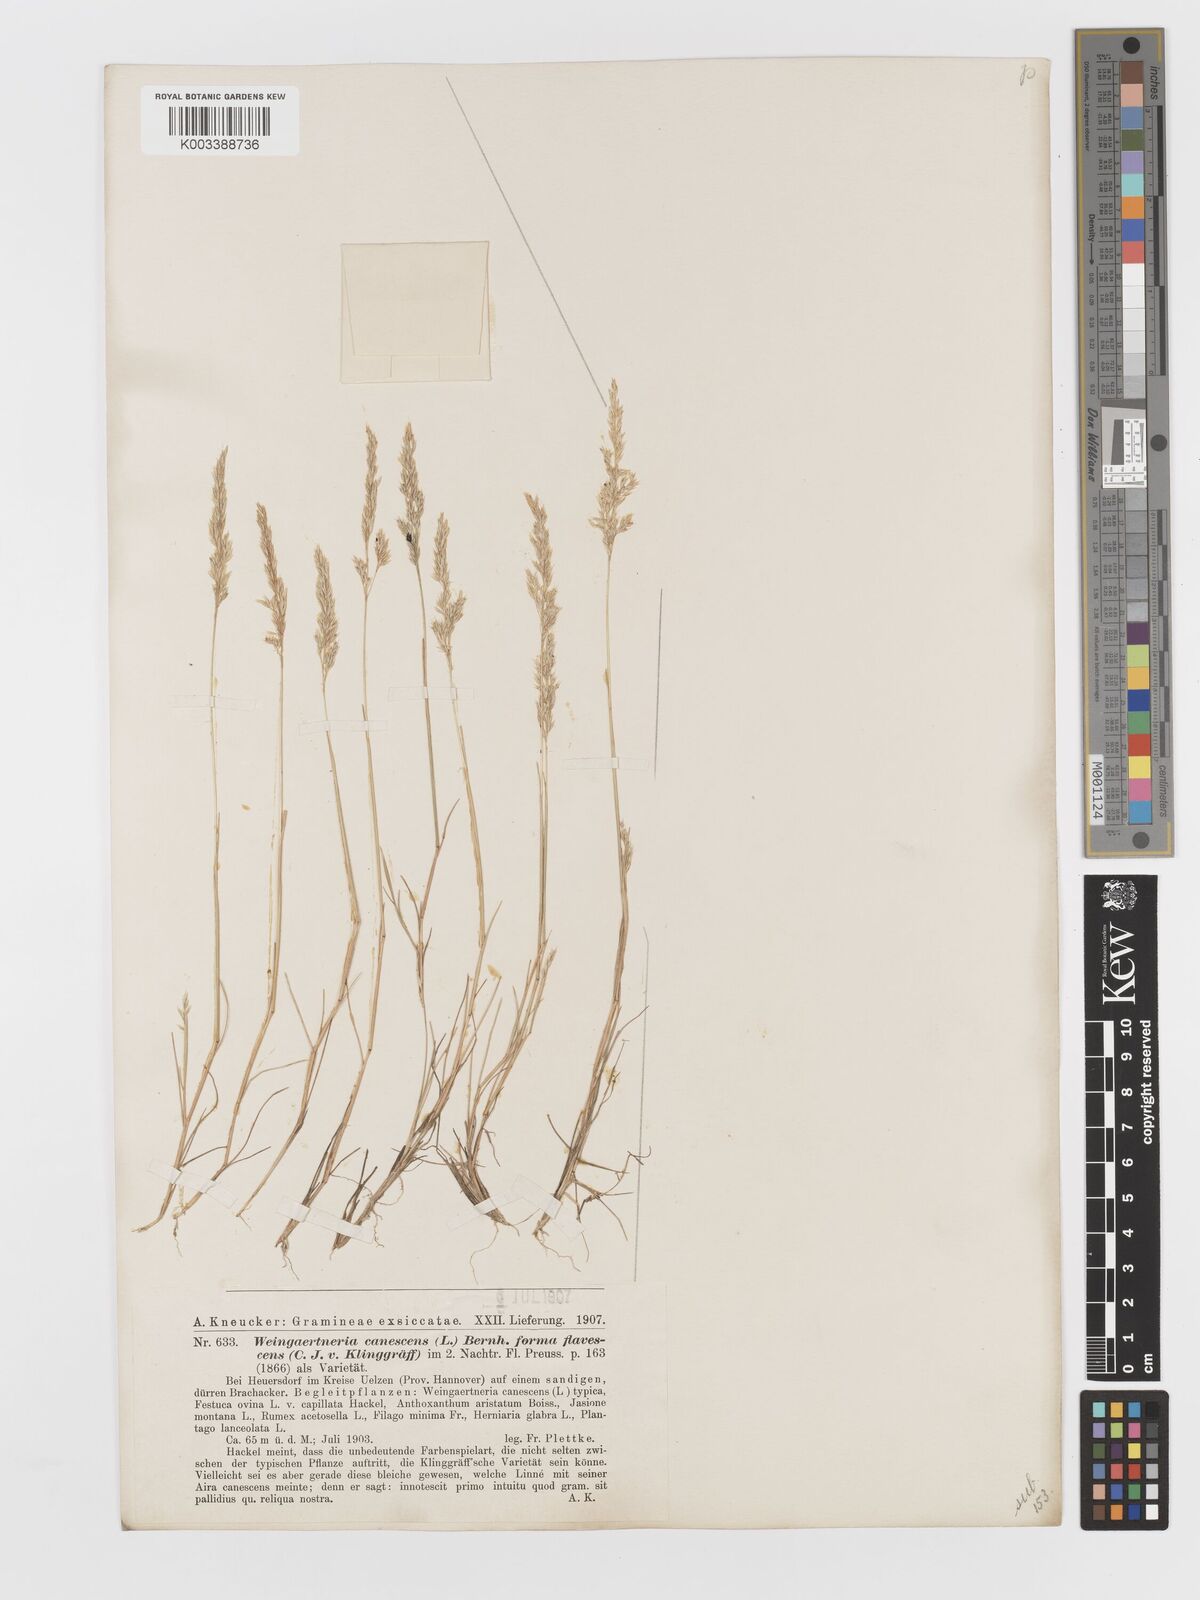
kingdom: Plantae
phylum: Tracheophyta
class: Liliopsida
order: Poales
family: Poaceae
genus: Corynephorus
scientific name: Corynephorus canescens
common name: Grey hair-grass
